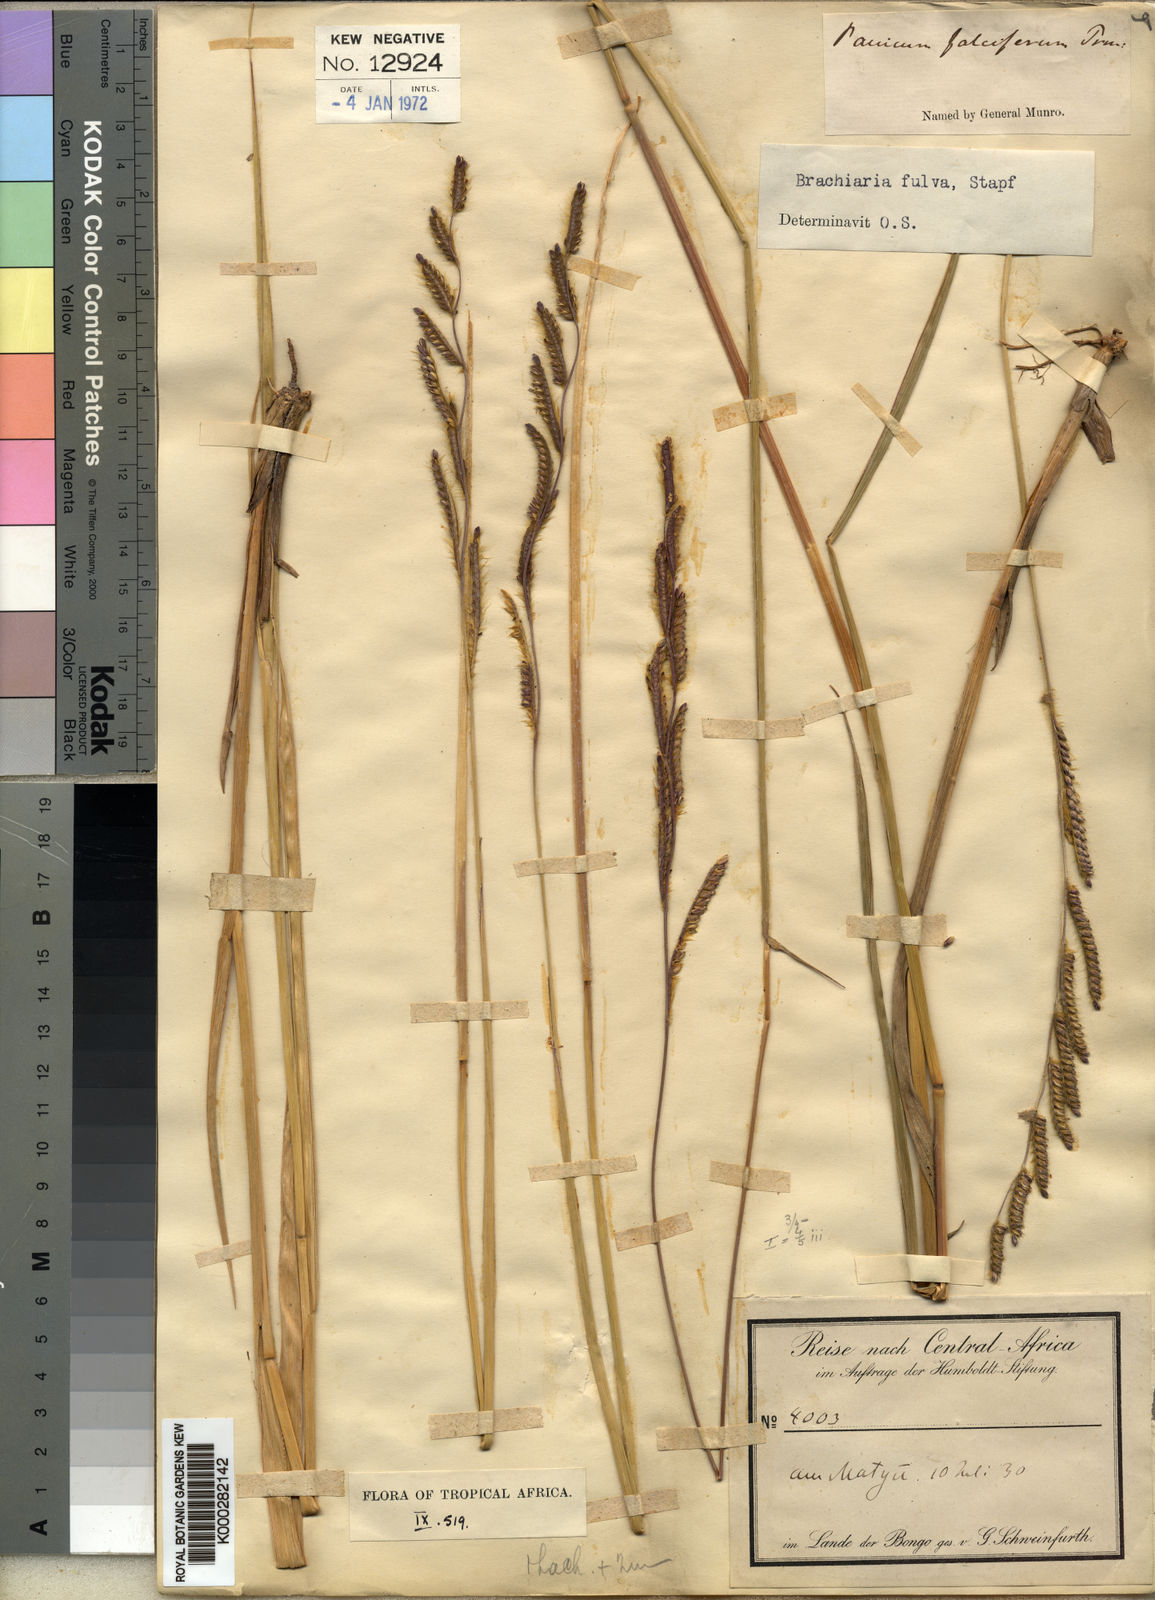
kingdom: Plantae
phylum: Tracheophyta
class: Liliopsida
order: Poales
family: Poaceae
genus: Urochloa
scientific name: Urochloa jubata
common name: Buffalograss
